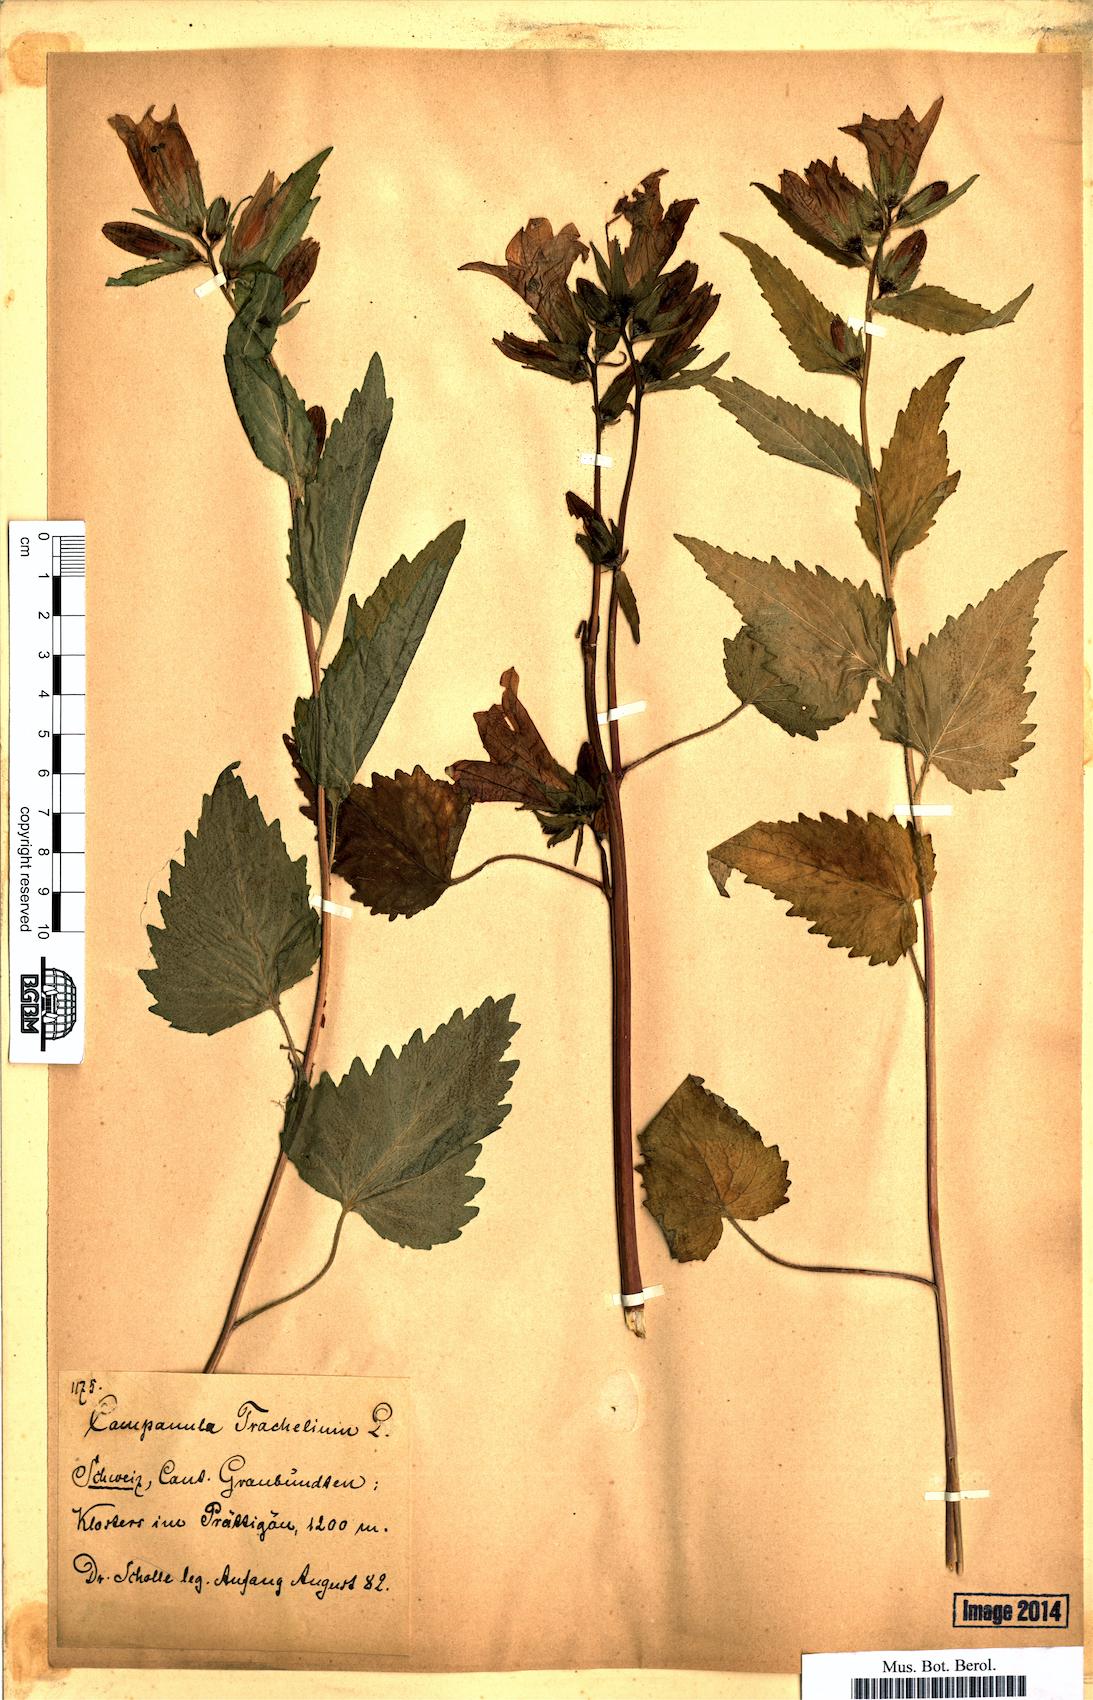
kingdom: Plantae
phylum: Tracheophyta
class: Magnoliopsida
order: Asterales
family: Campanulaceae
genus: Campanula
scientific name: Campanula trachelium
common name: Nettle-leaved bellflower
